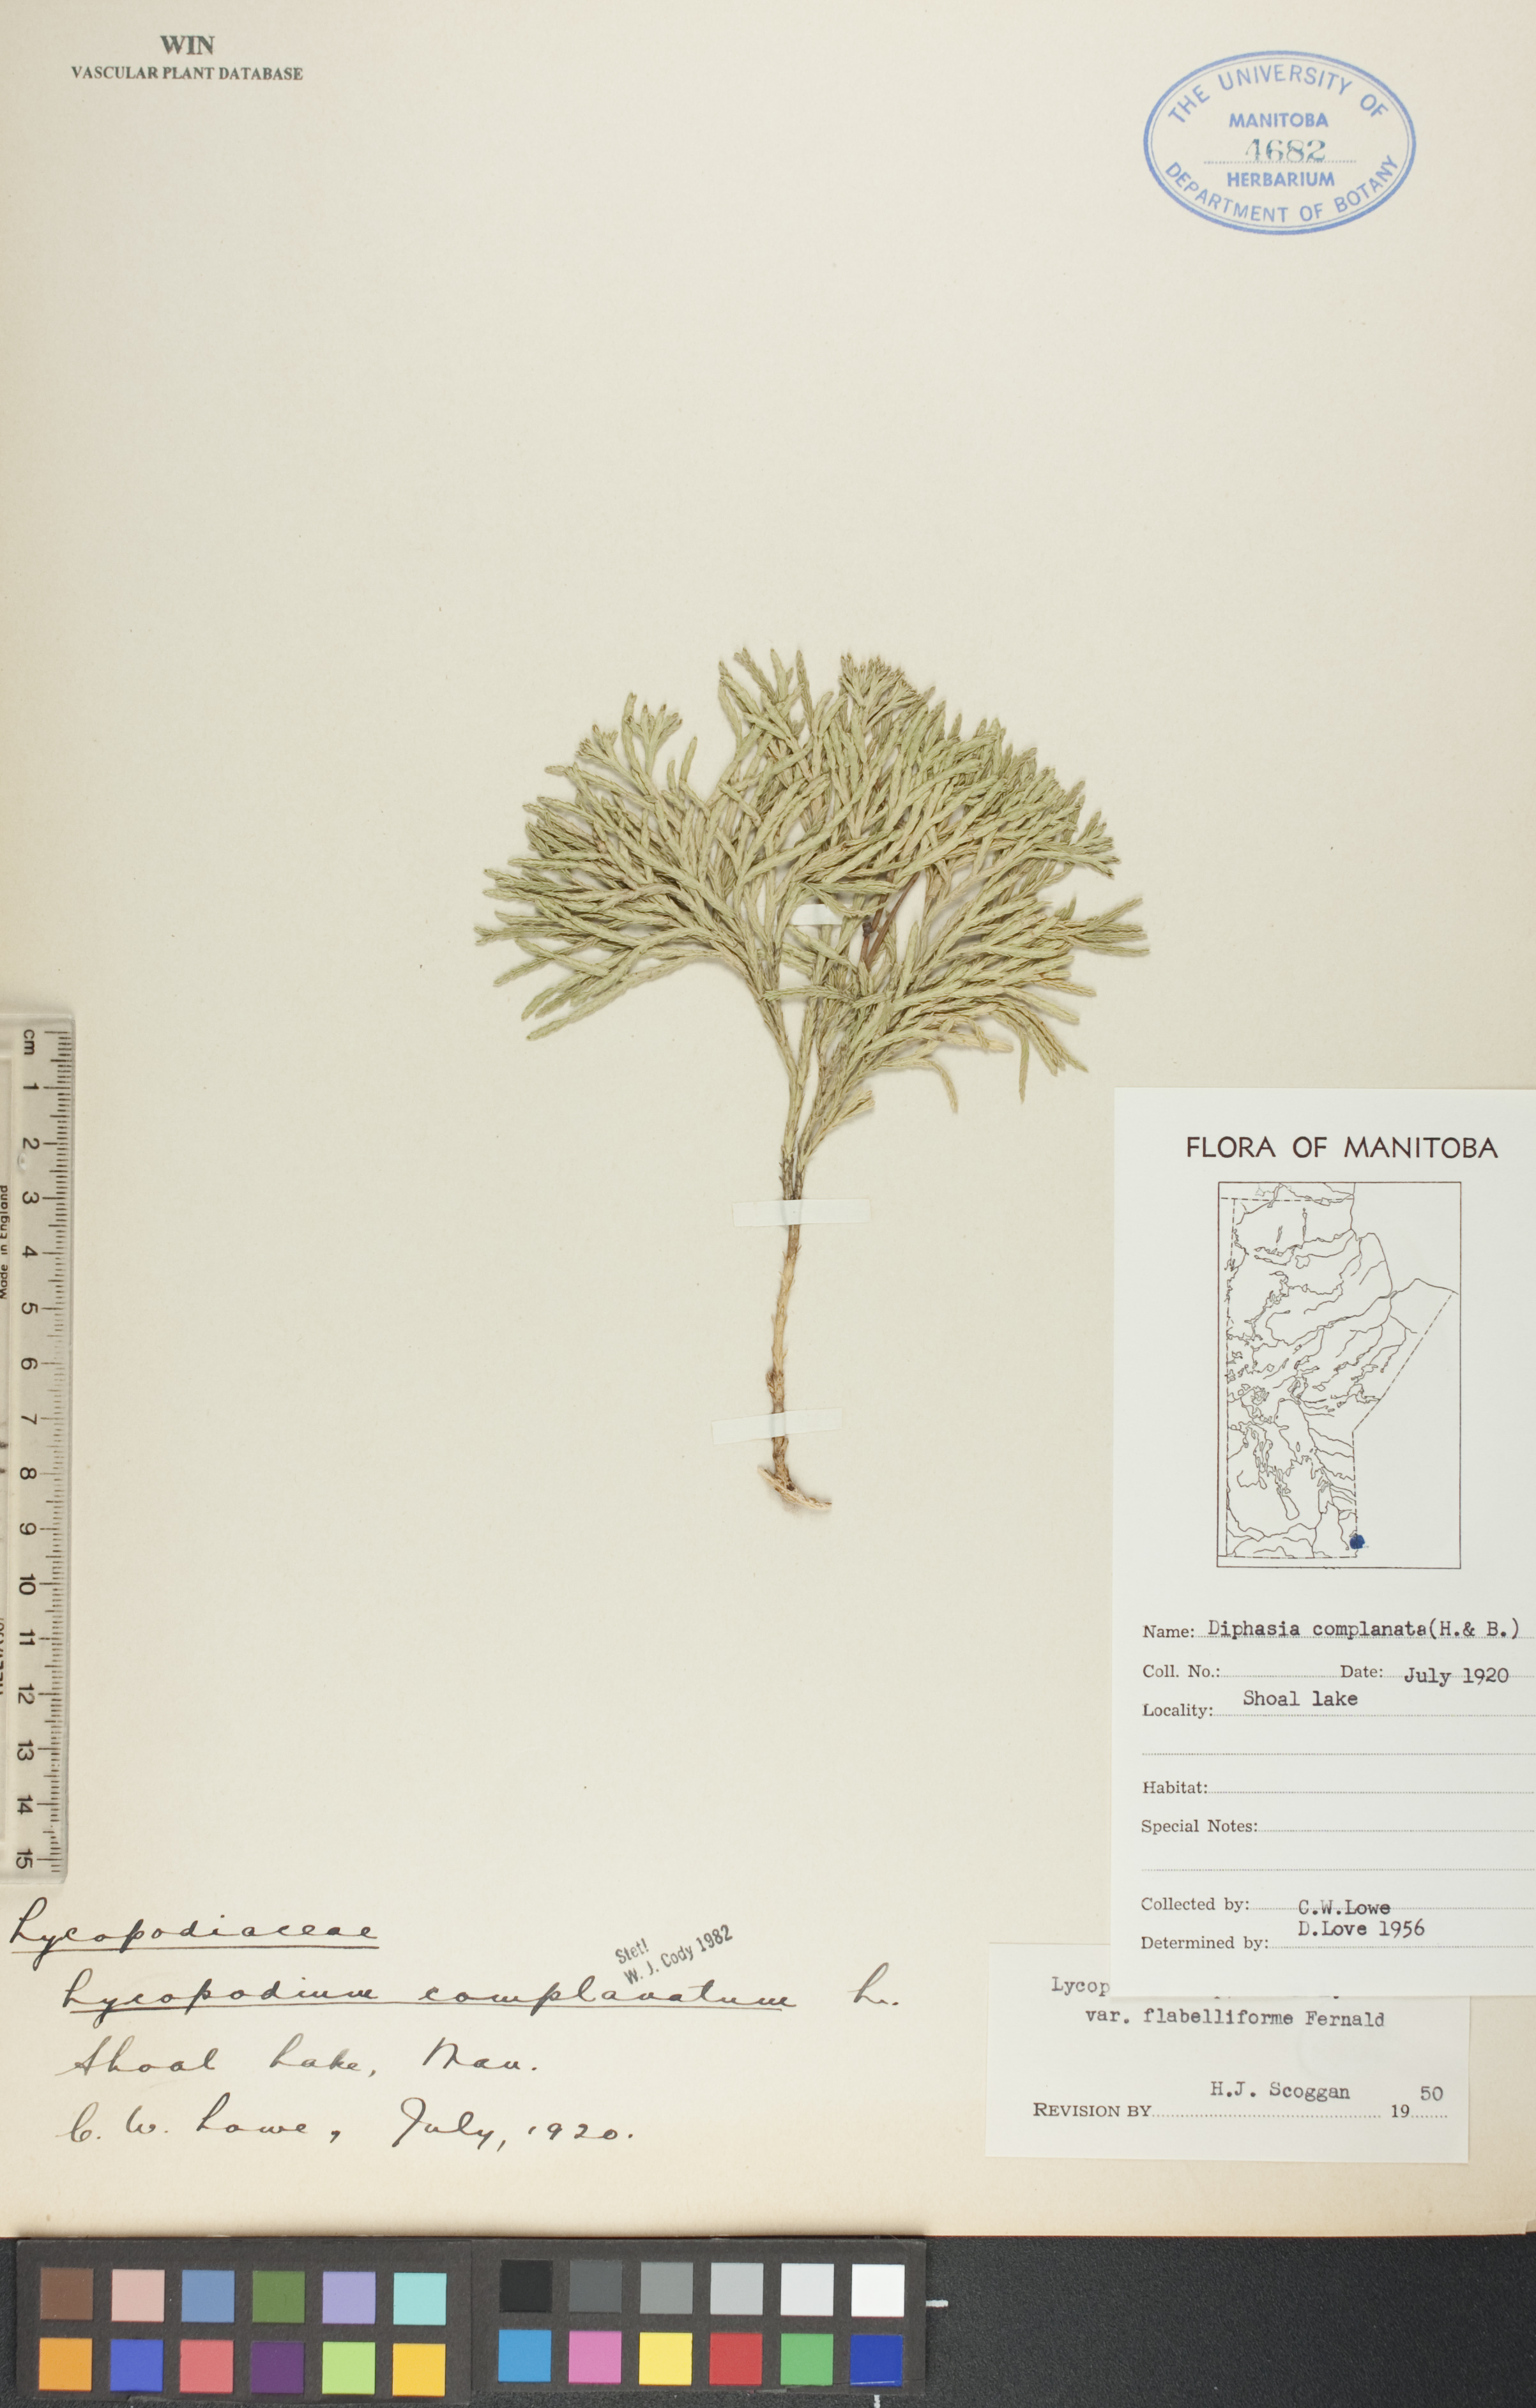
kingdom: Plantae
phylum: Tracheophyta
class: Lycopodiopsida
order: Lycopodiales
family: Lycopodiaceae
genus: Diphasiastrum
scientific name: Diphasiastrum
